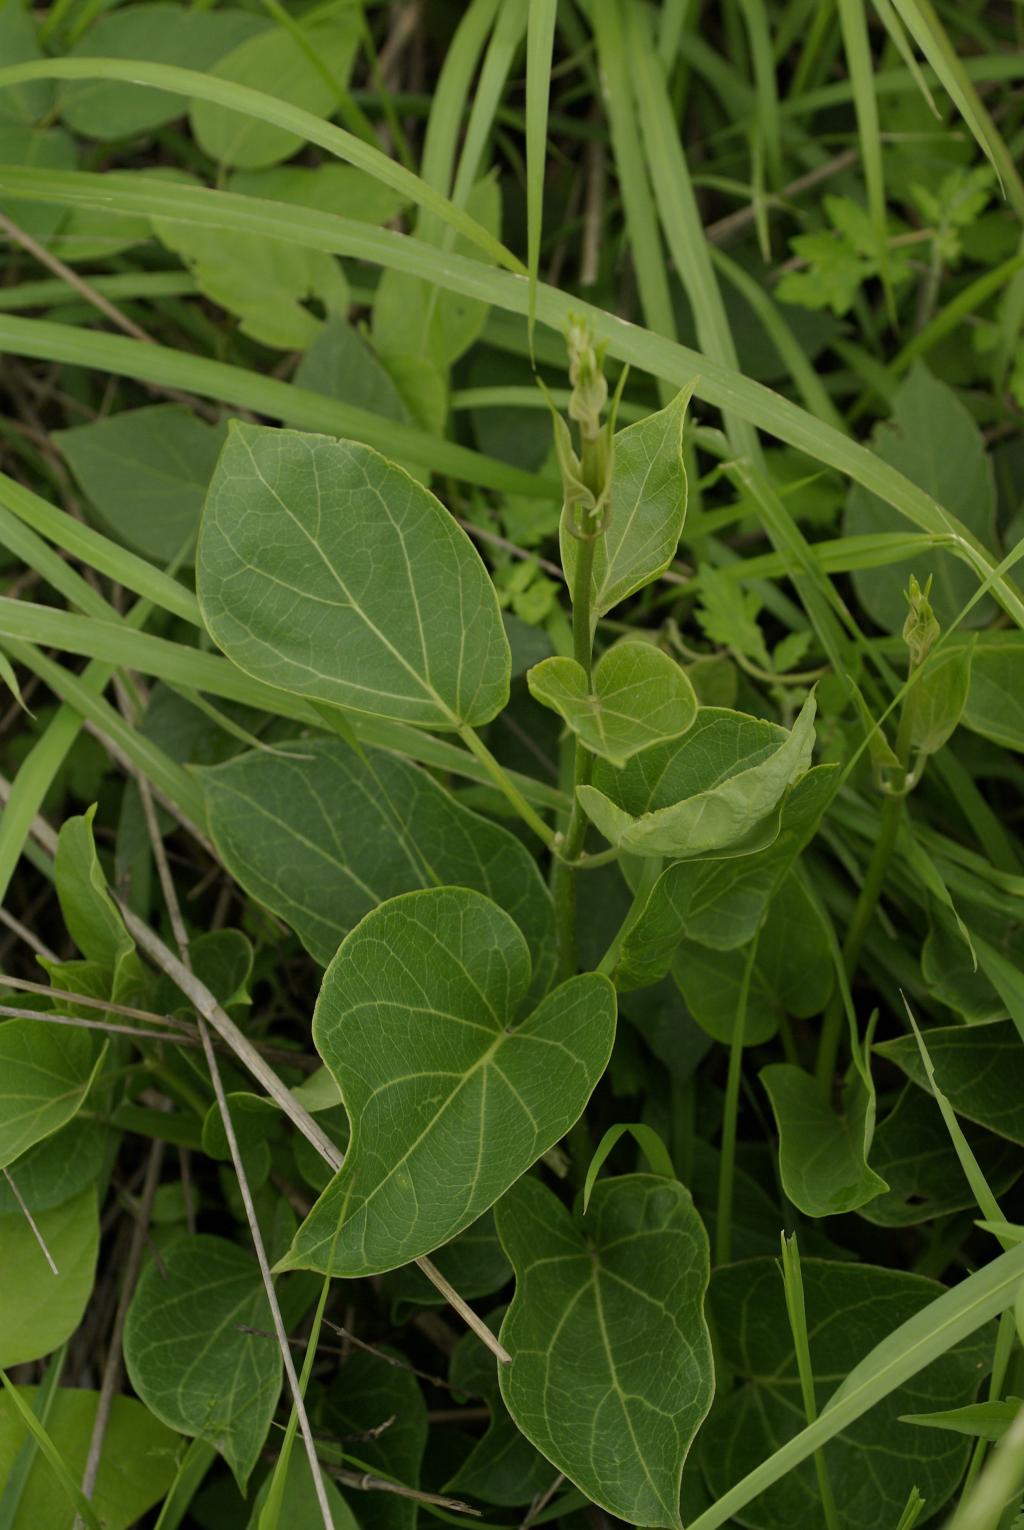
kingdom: Plantae
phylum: Tracheophyta
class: Magnoliopsida
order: Gentianales
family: Apocynaceae
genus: Stephanotis
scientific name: Stephanotis volubilis
